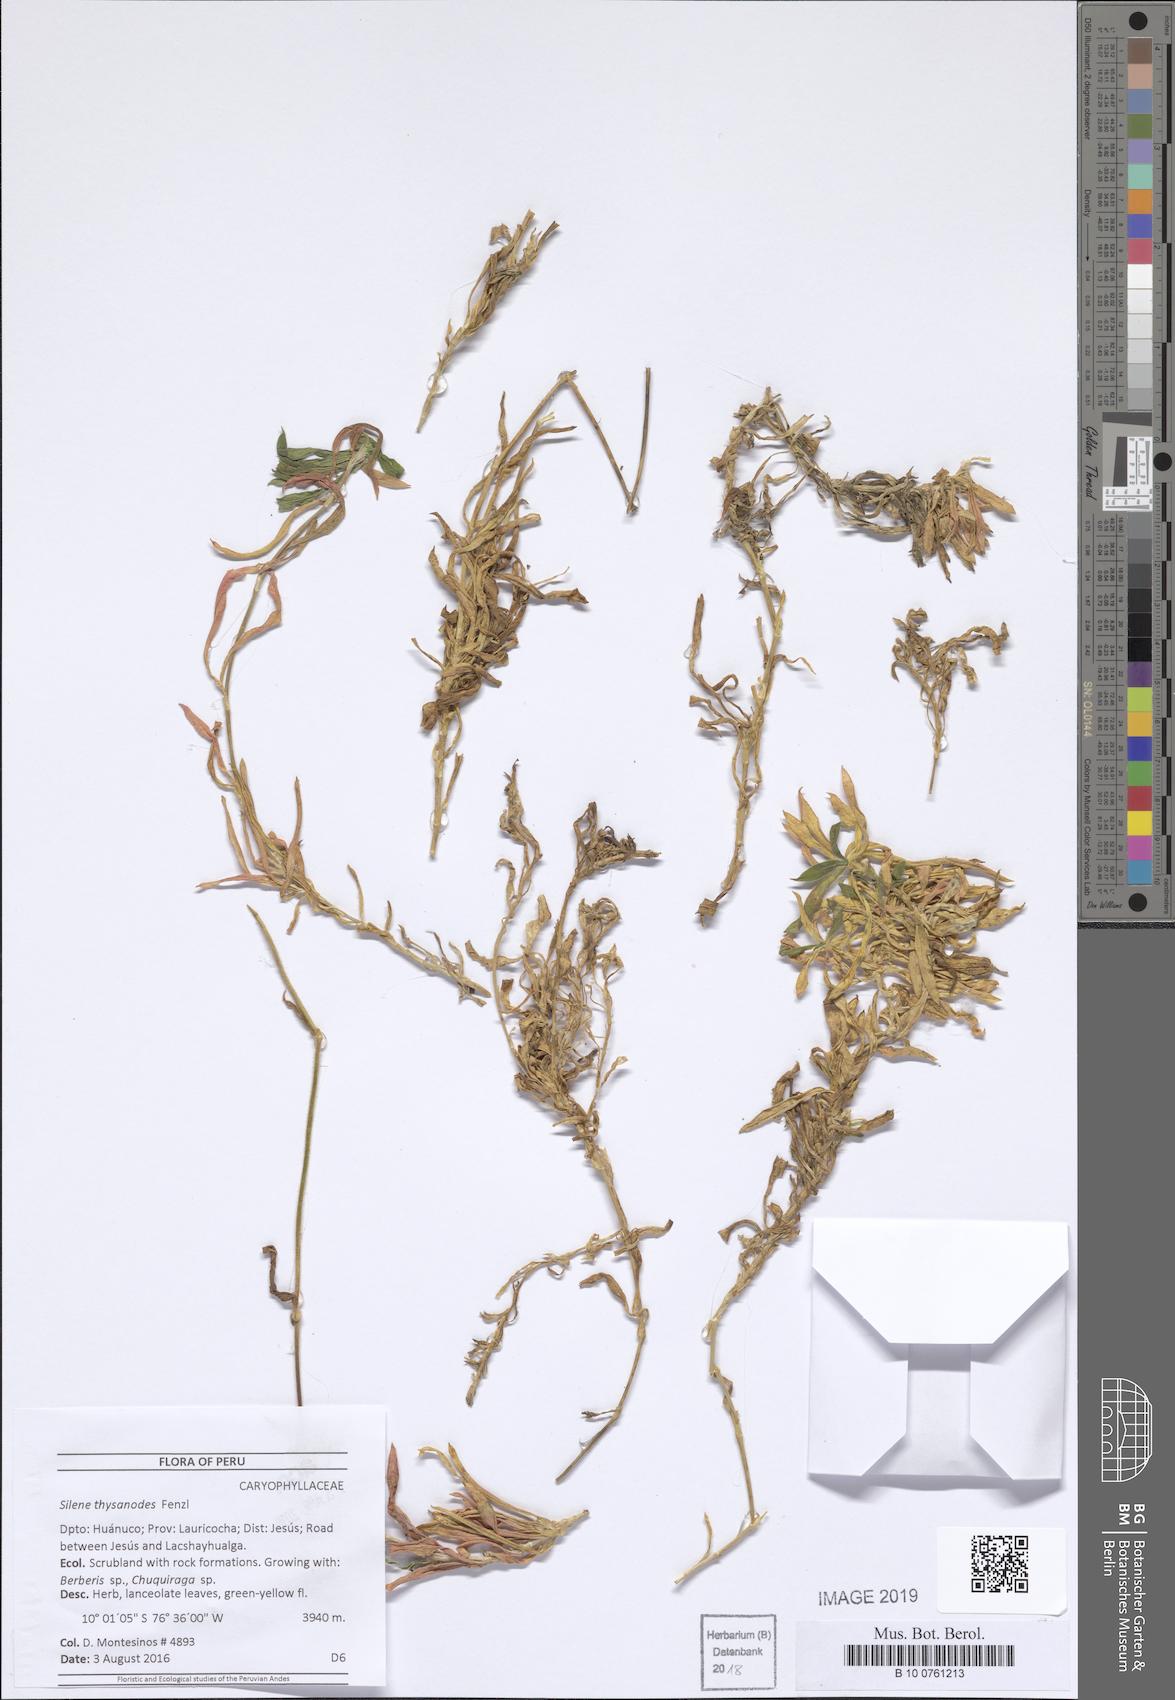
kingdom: Plantae
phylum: Tracheophyta
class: Magnoliopsida
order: Caryophyllales
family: Caryophyllaceae
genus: Silene
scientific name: Silene thysanodes
